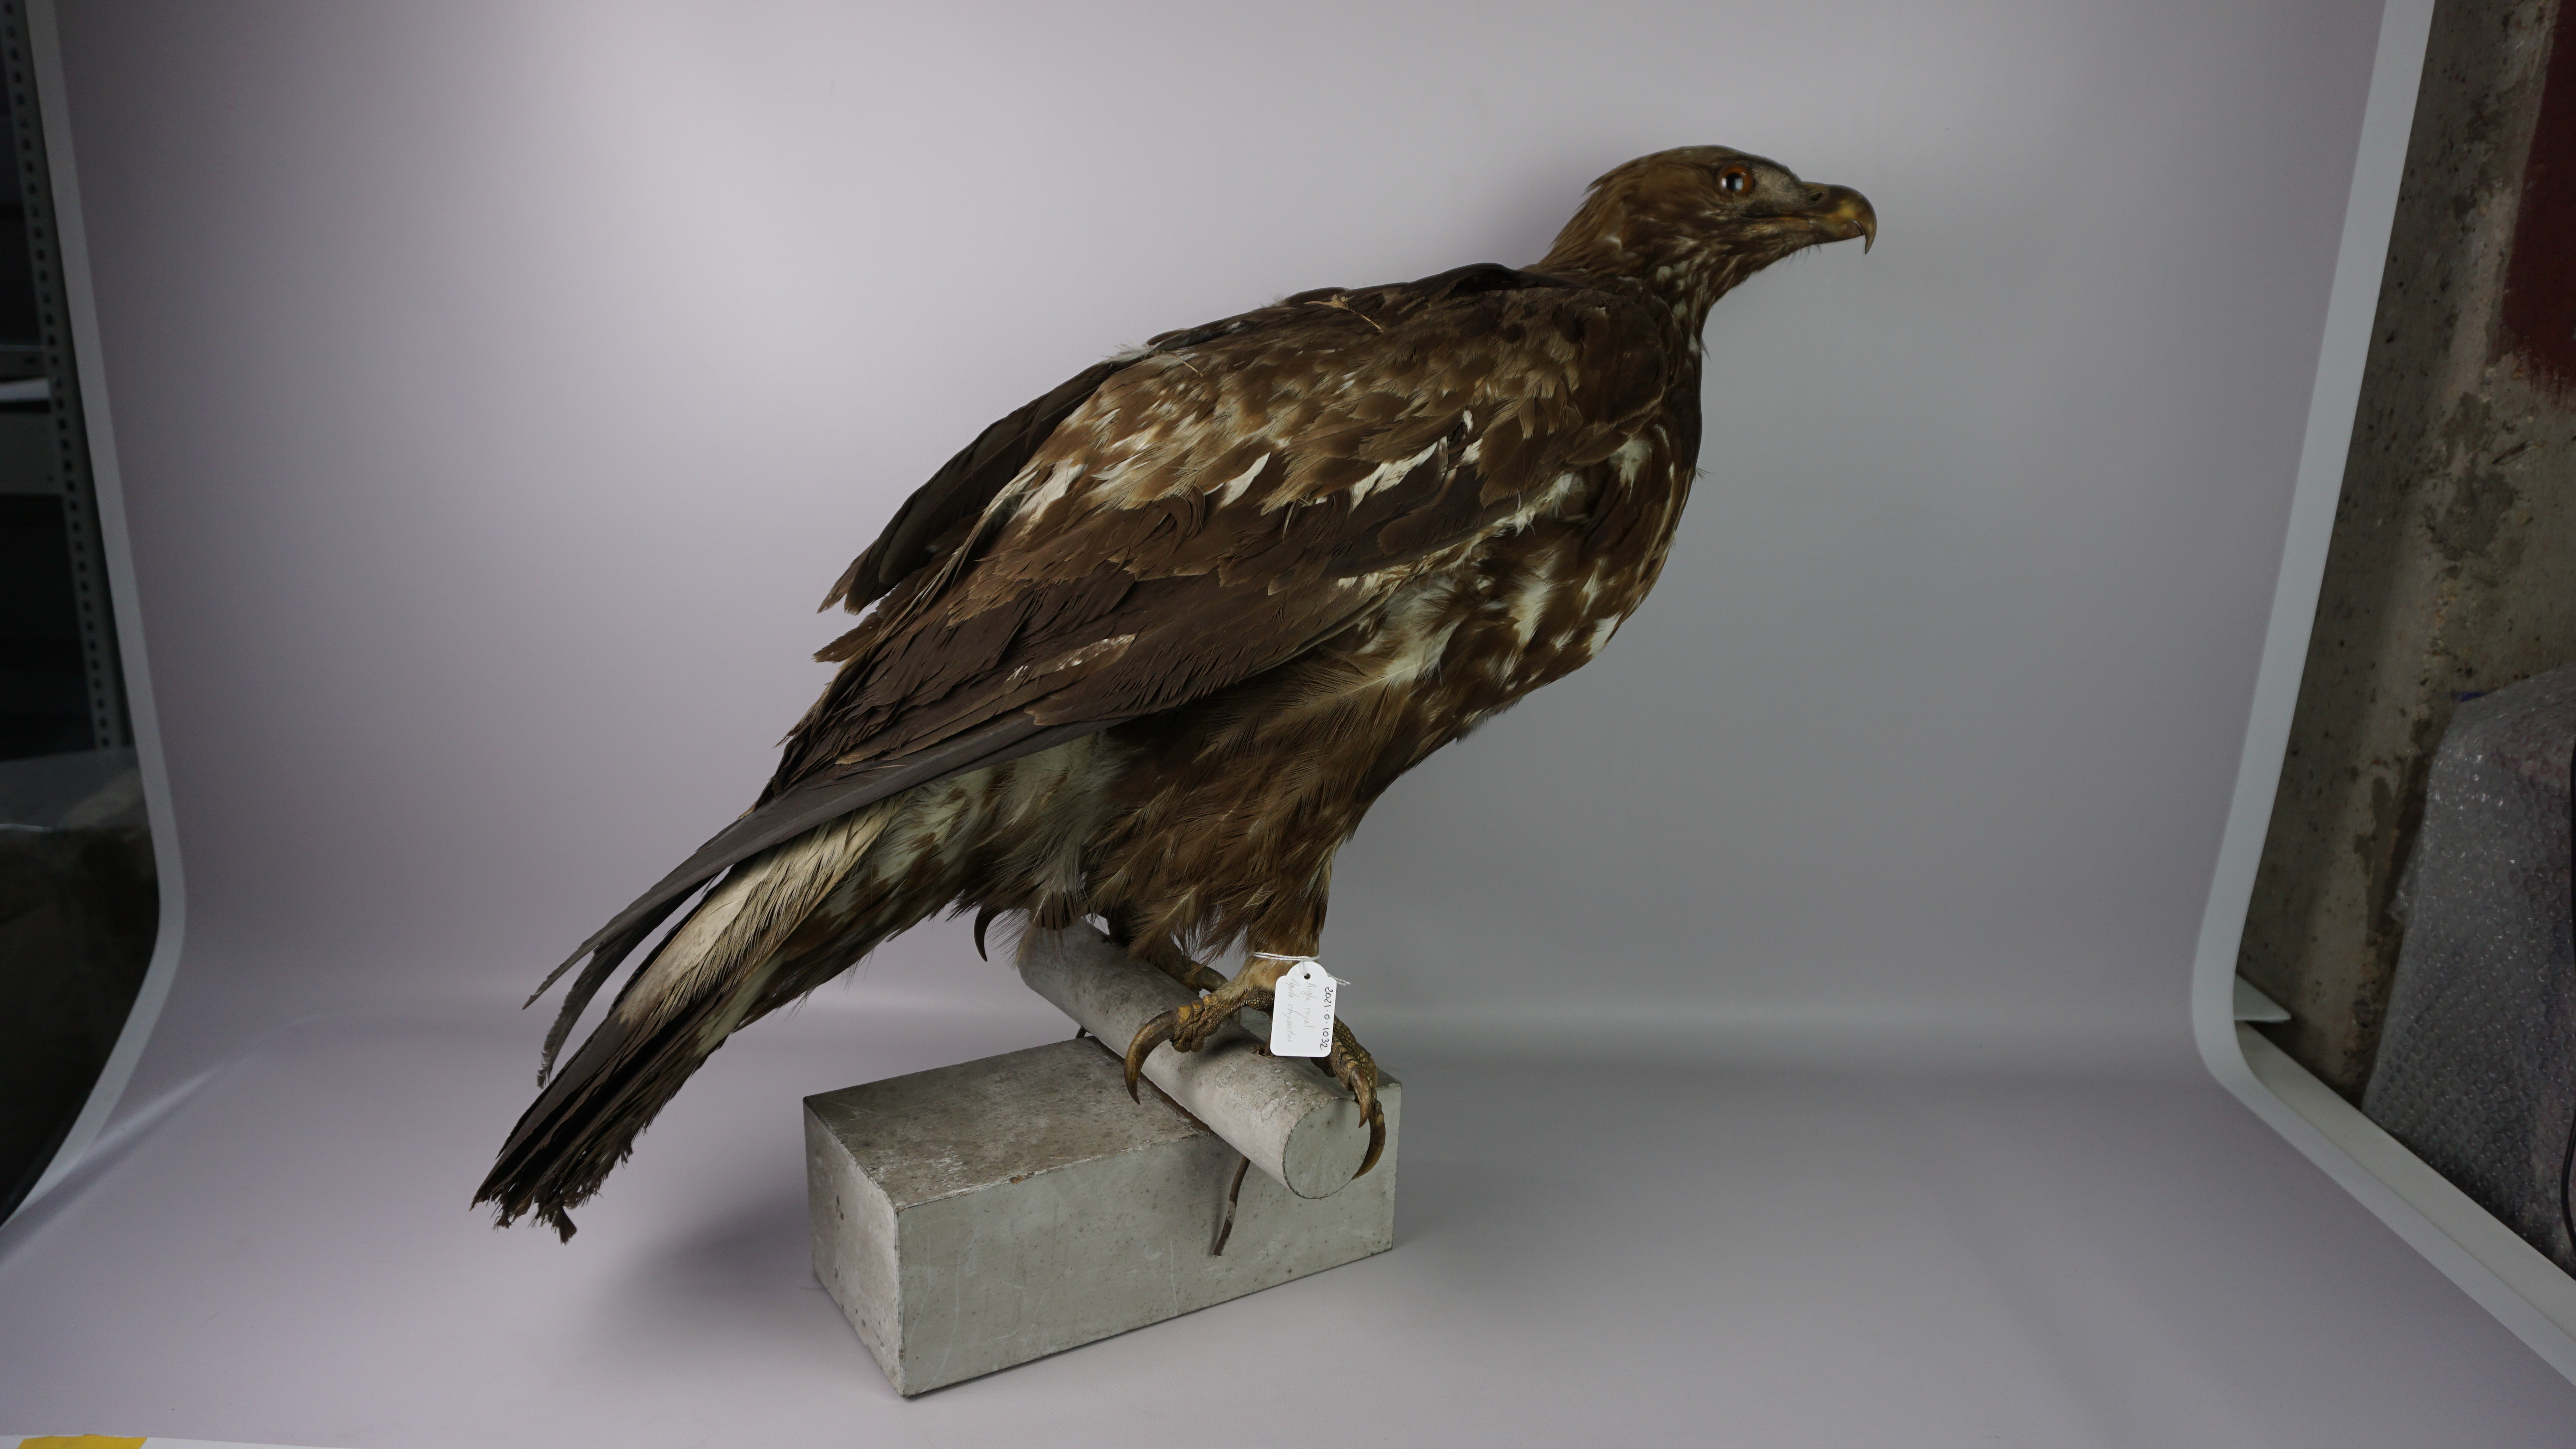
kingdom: Animalia
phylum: Chordata
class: Aves
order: Accipitriformes
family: Accipitridae
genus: Aquila
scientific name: Aquila chrysaetos
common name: Golden eagle
